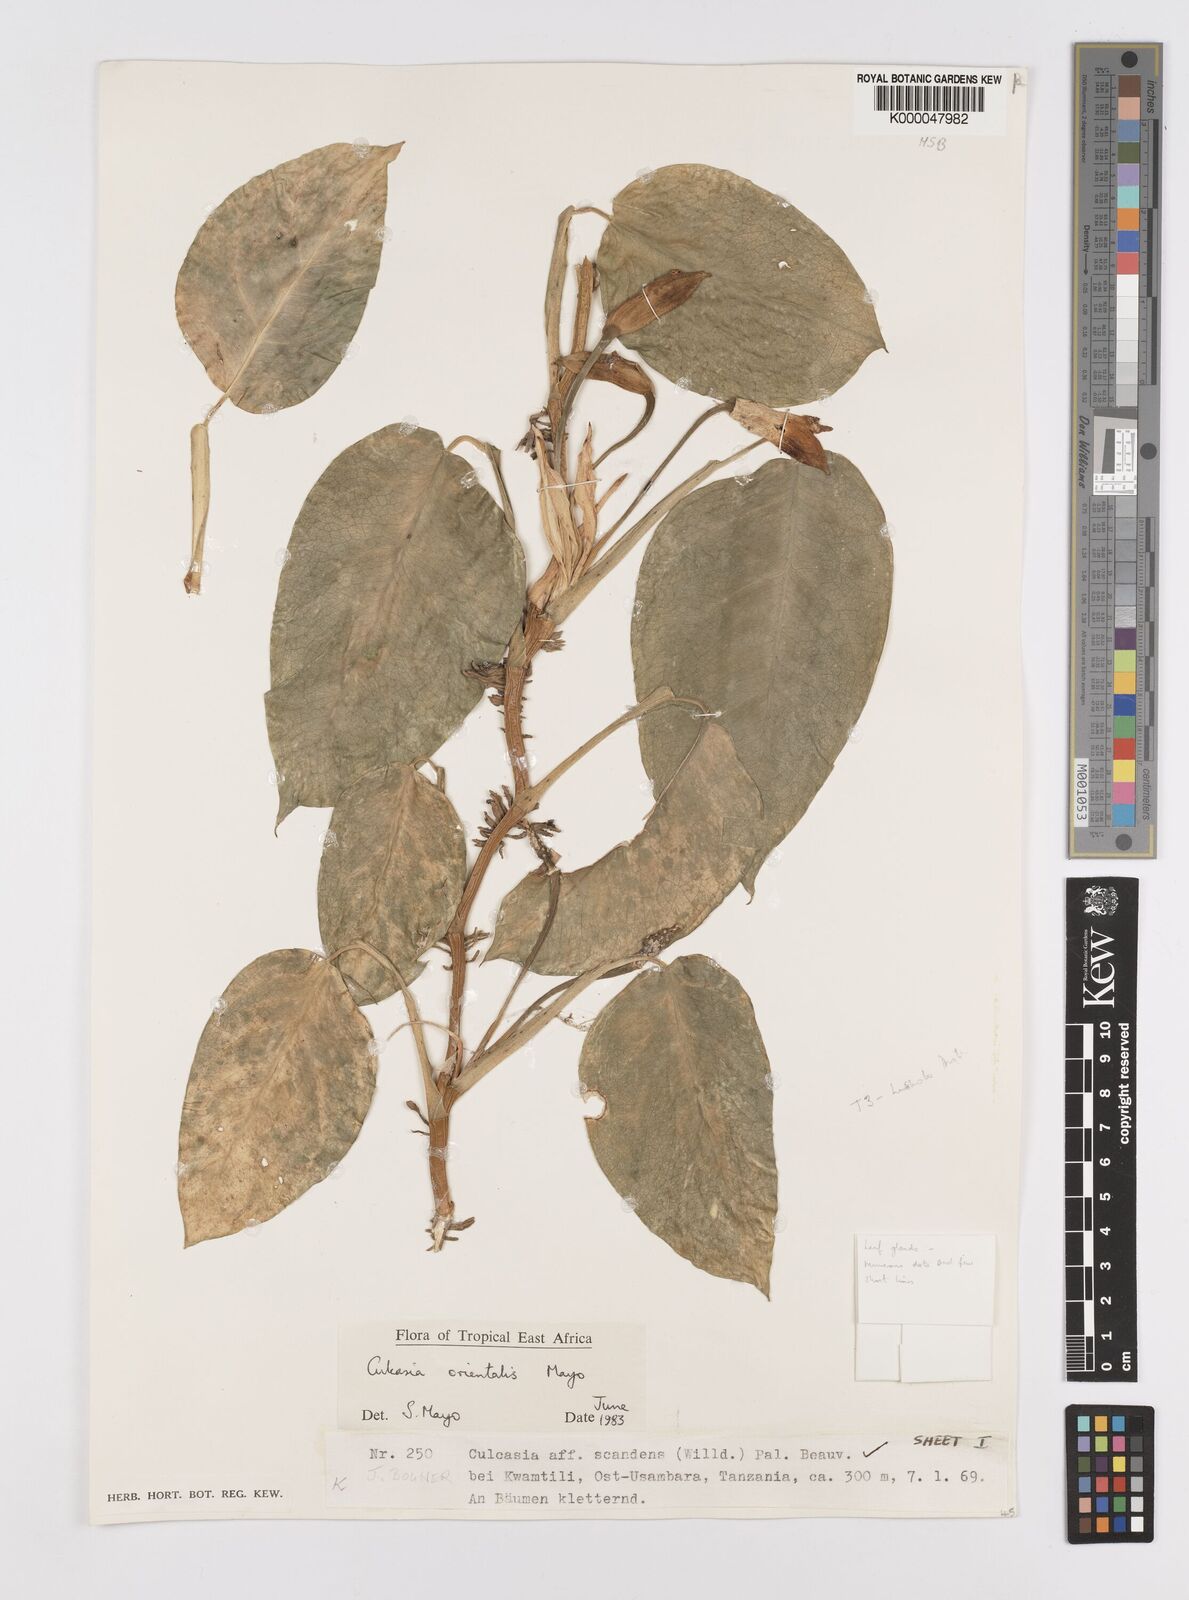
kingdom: Plantae
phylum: Tracheophyta
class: Liliopsida
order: Alismatales
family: Araceae
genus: Culcasia
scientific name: Culcasia orientalis
